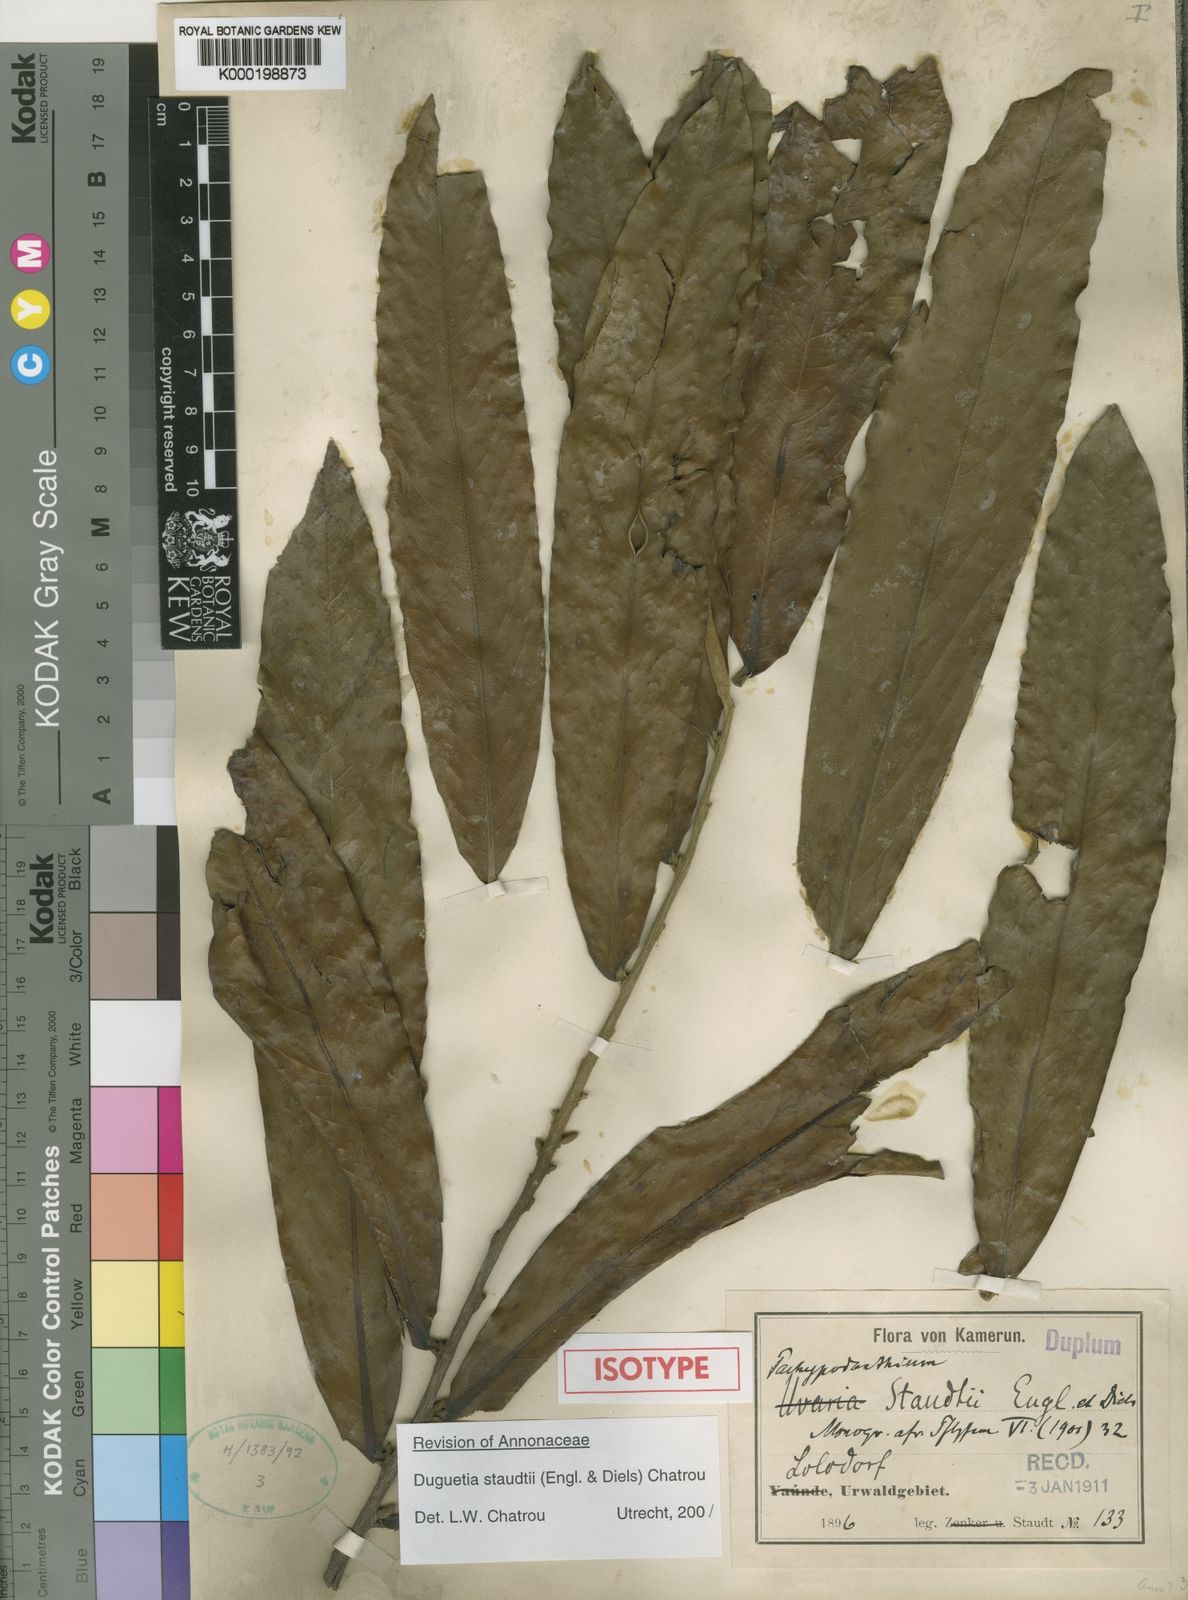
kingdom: Plantae
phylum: Tracheophyta
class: Magnoliopsida
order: Magnoliales
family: Annonaceae
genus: Duguetia
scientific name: Duguetia staudtii
